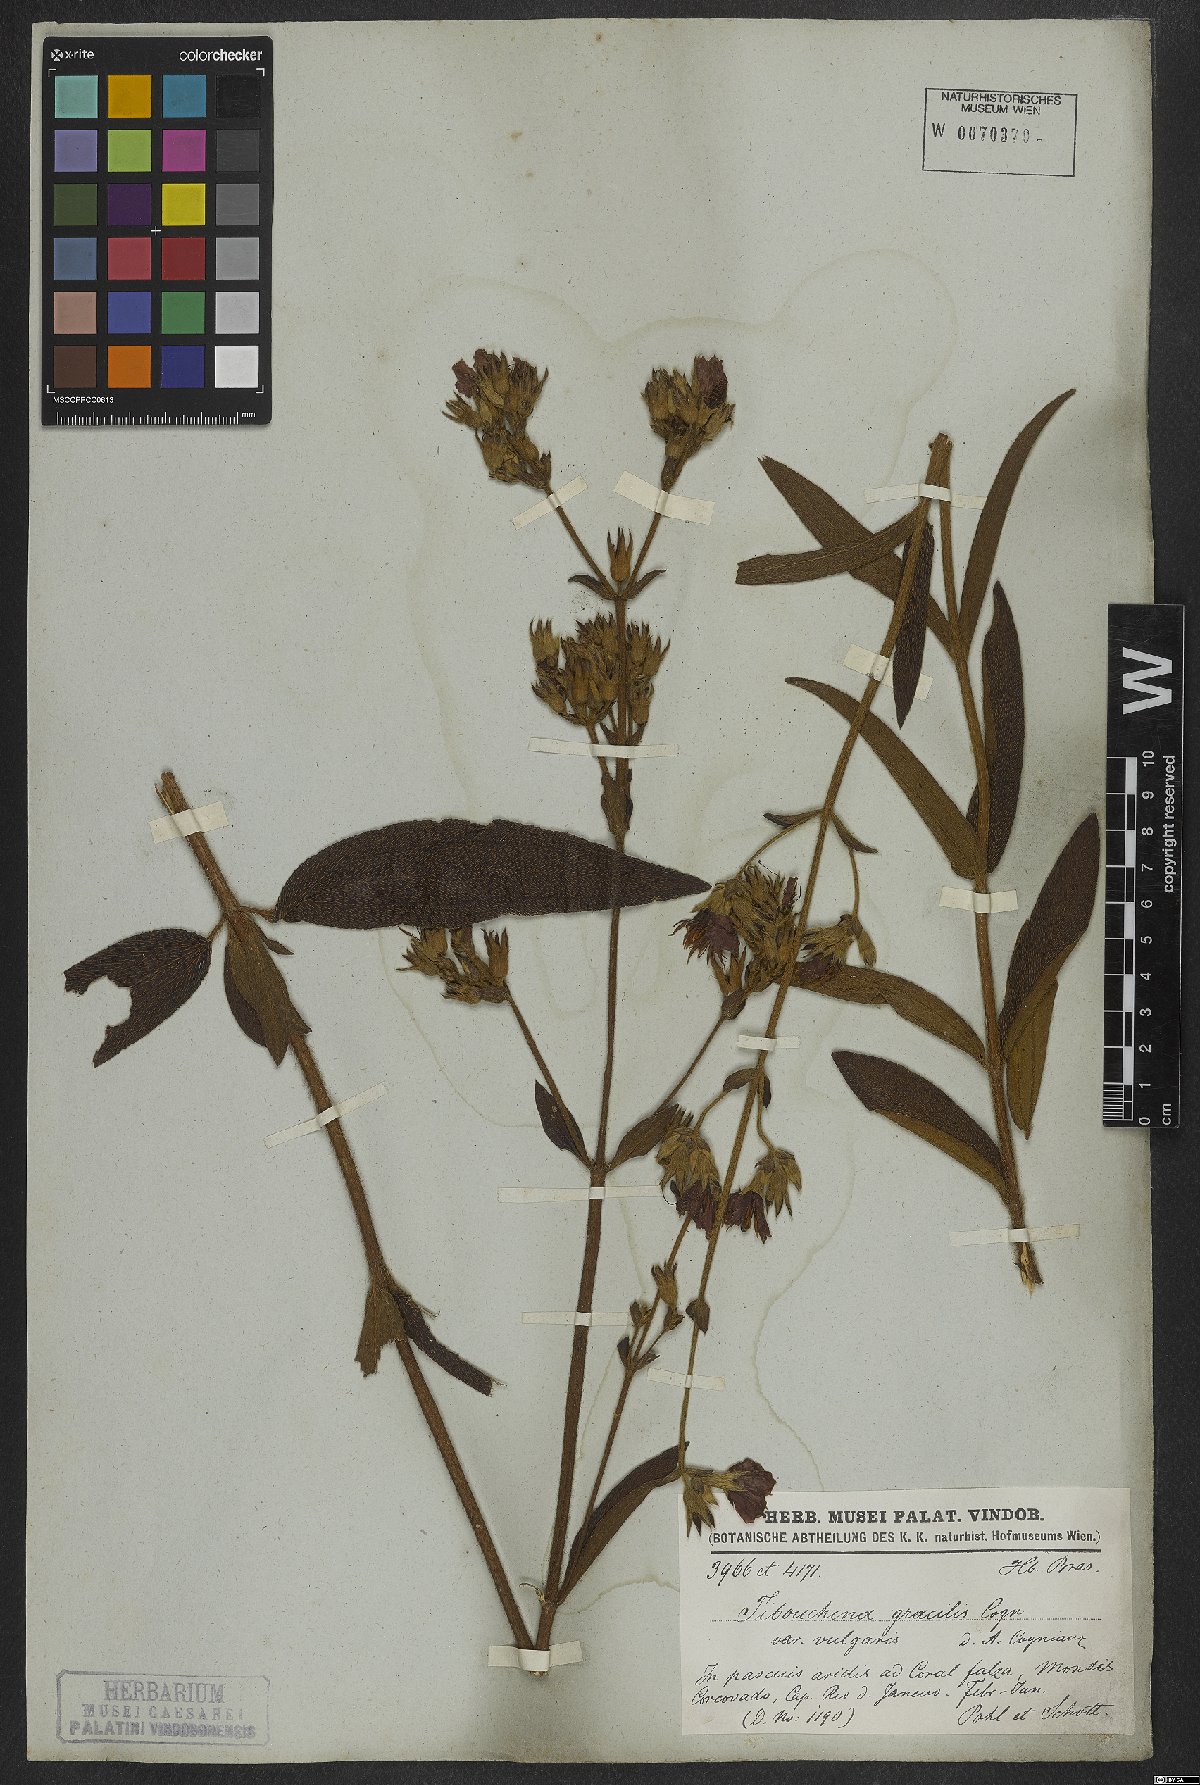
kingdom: Plantae
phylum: Tracheophyta
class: Magnoliopsida
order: Myrtales
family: Melastomataceae
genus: Chaetogastra
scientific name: Chaetogastra gracilis
